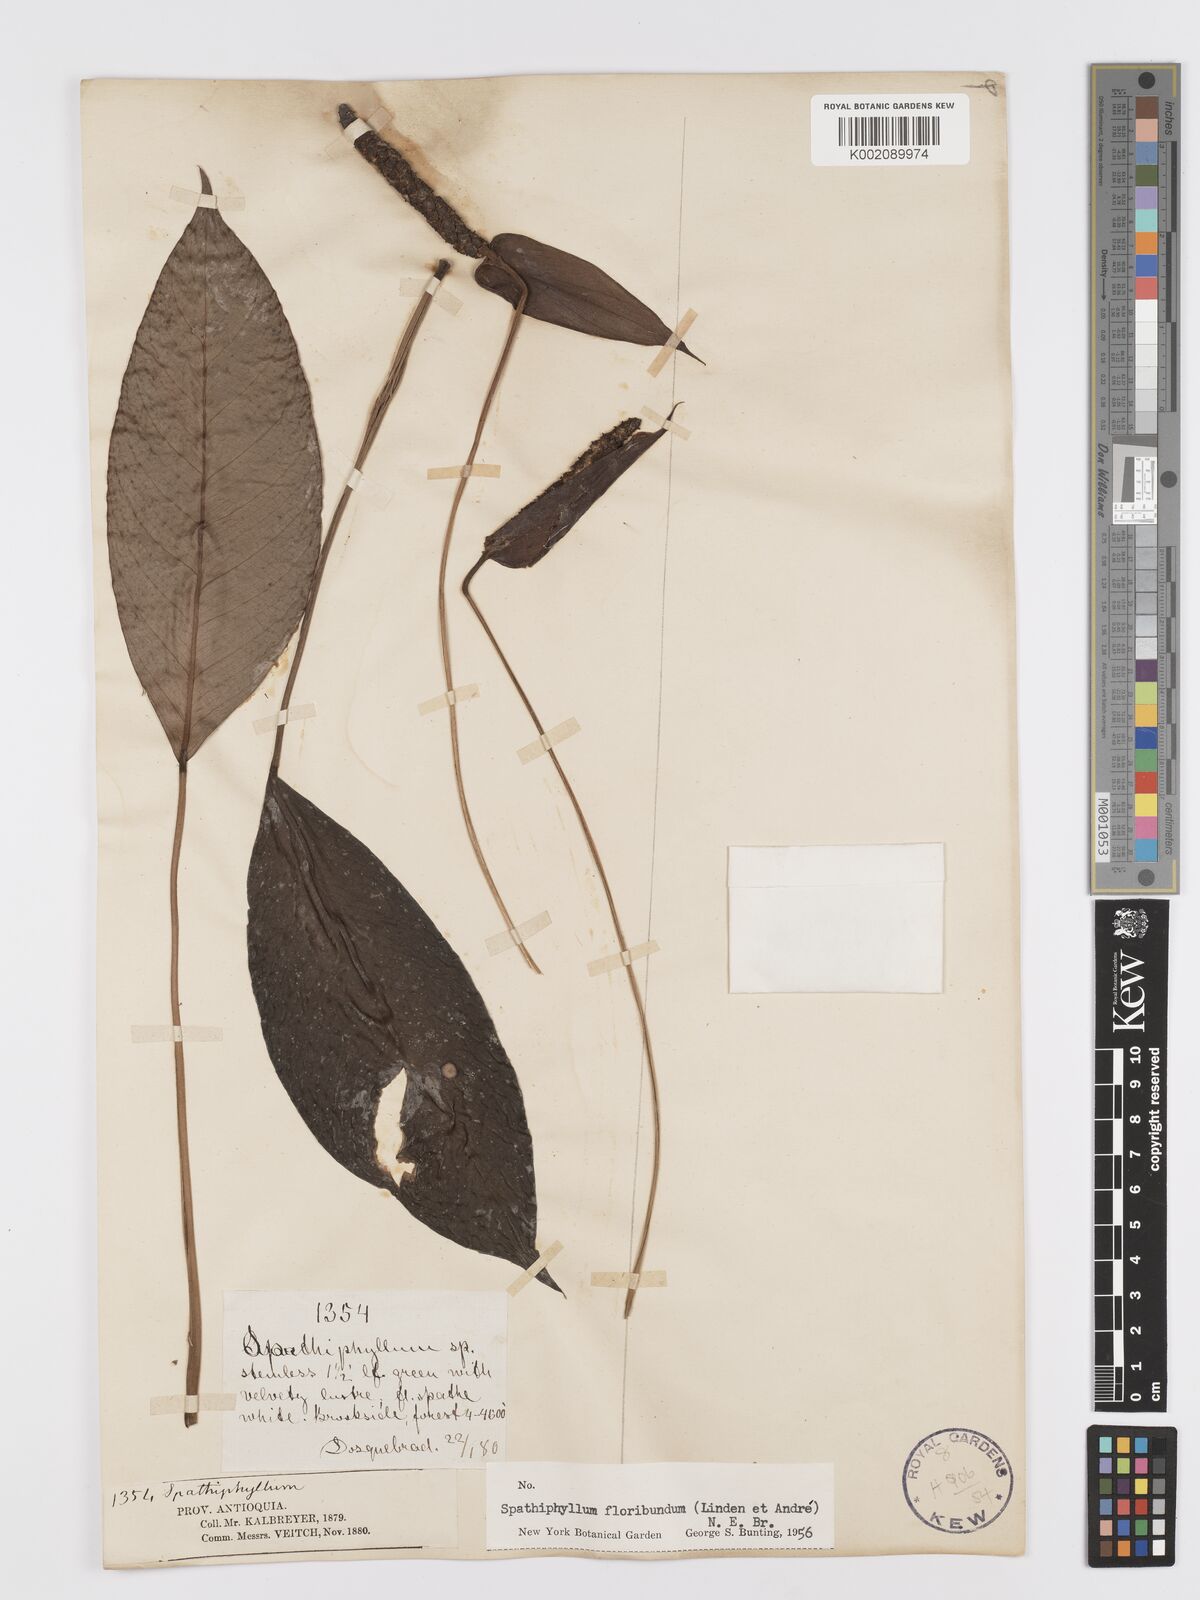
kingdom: Plantae
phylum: Tracheophyta
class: Liliopsida
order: Alismatales
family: Araceae
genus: Spathiphyllum
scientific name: Spathiphyllum floribundum
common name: Peace-lily
